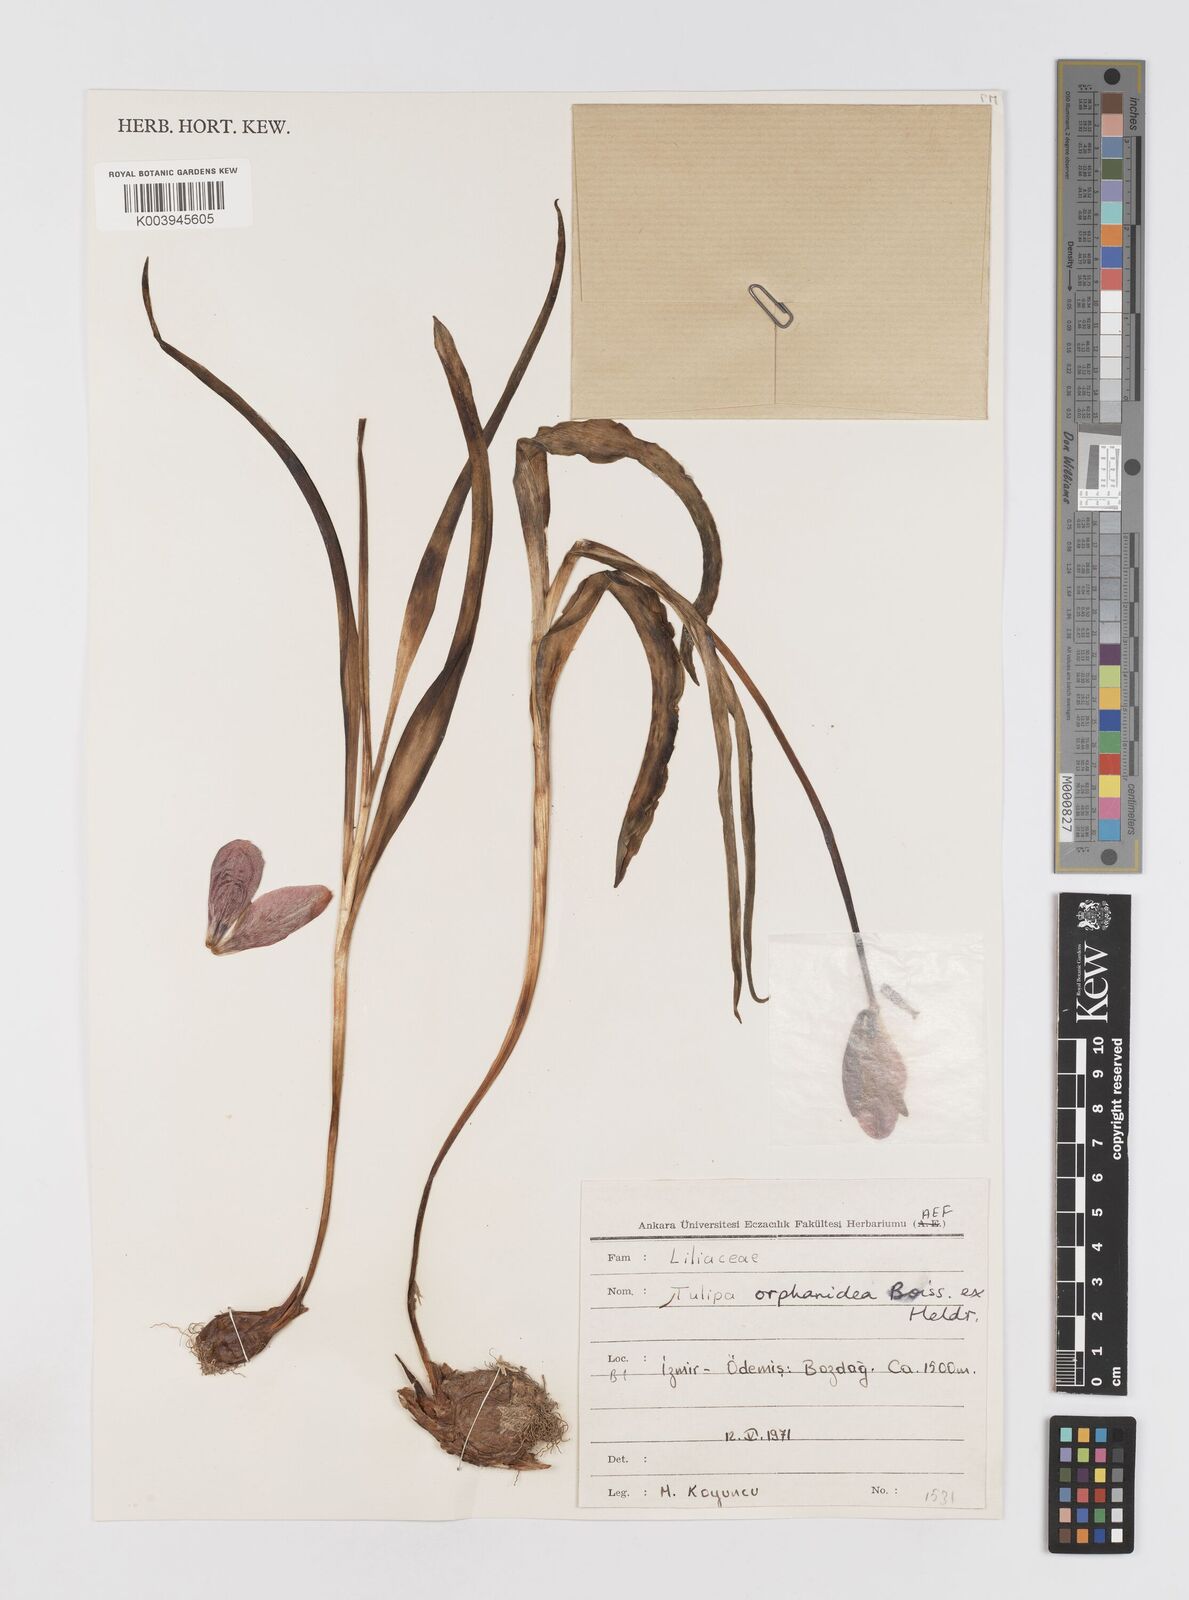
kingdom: Plantae
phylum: Tracheophyta
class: Liliopsida
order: Liliales
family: Liliaceae
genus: Tulipa
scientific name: Tulipa orphanidea
